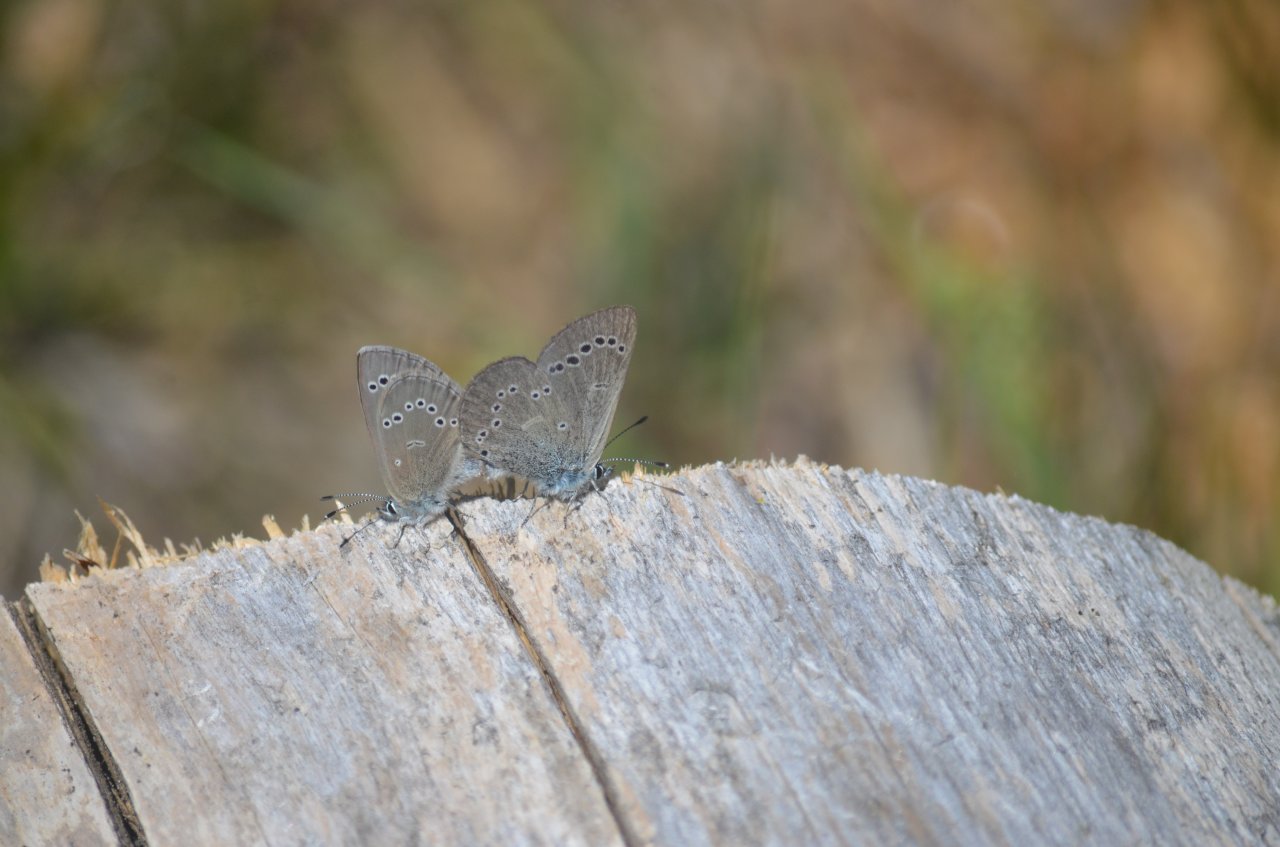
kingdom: Animalia
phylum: Arthropoda
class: Insecta
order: Lepidoptera
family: Lycaenidae
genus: Glaucopsyche
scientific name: Glaucopsyche lygdamus
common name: Silvery Blue
